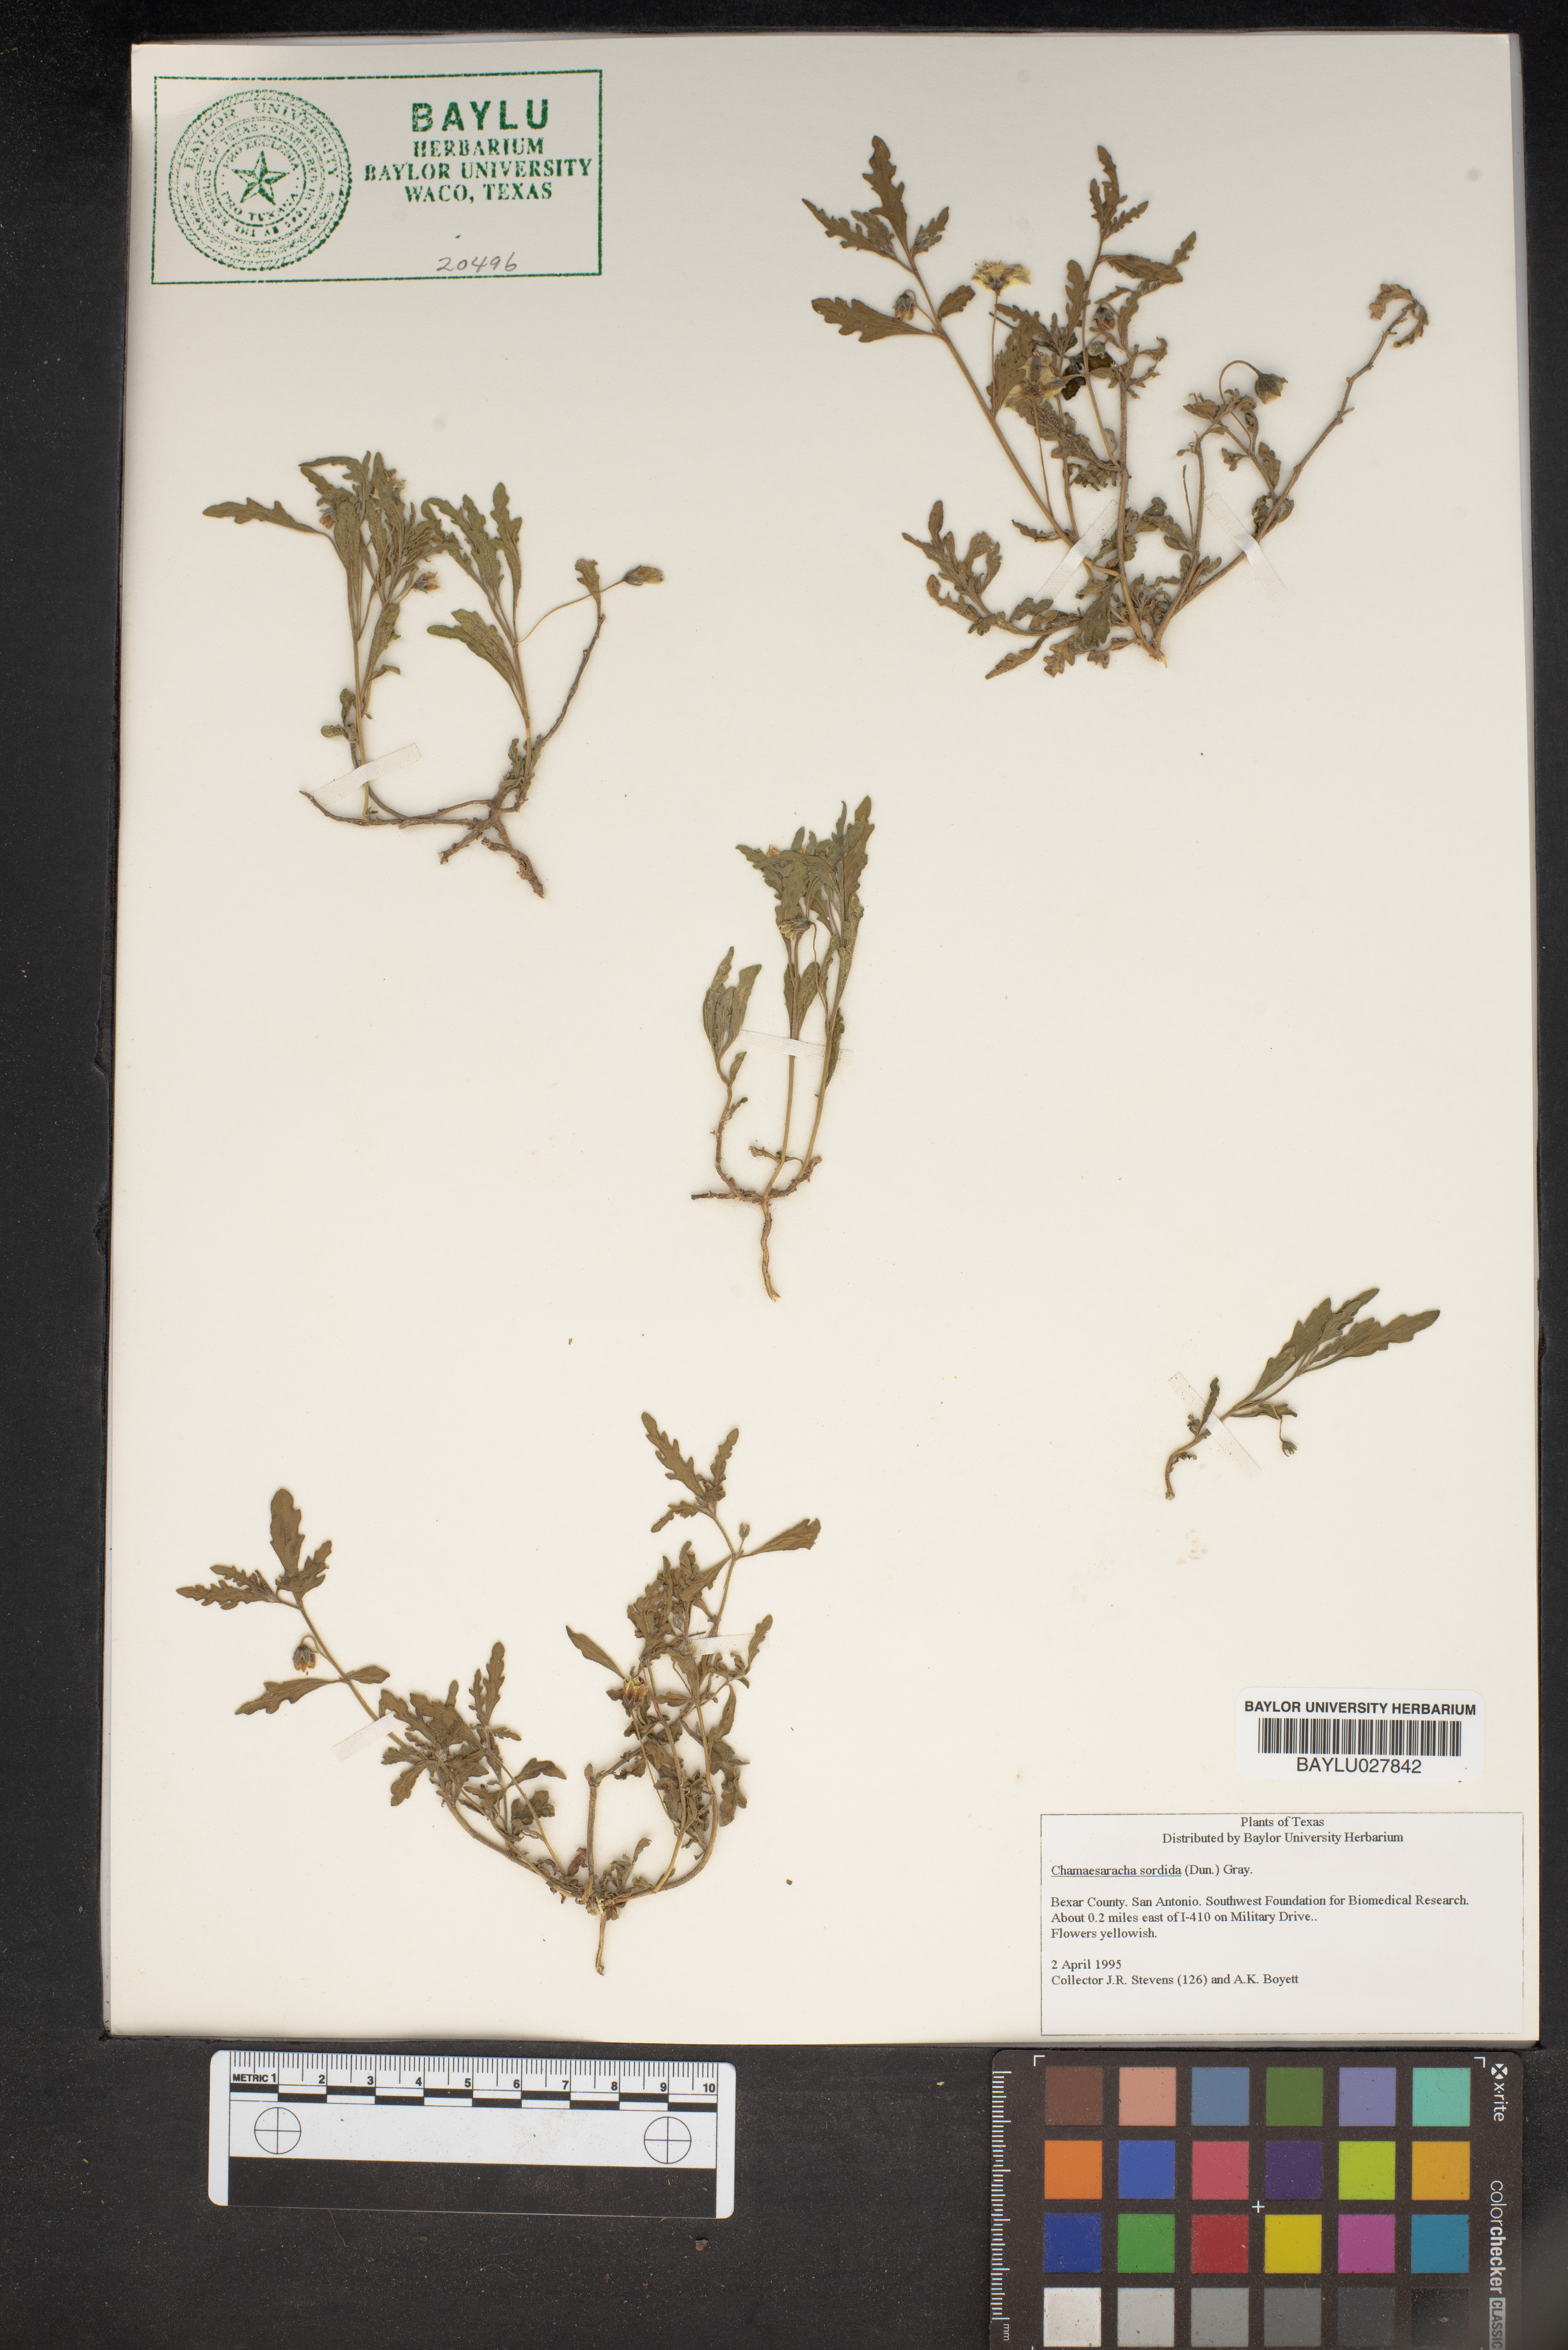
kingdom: Plantae
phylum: Tracheophyta
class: Magnoliopsida
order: Solanales
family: Solanaceae
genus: Chamaesaracha
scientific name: Chamaesaracha sordida
